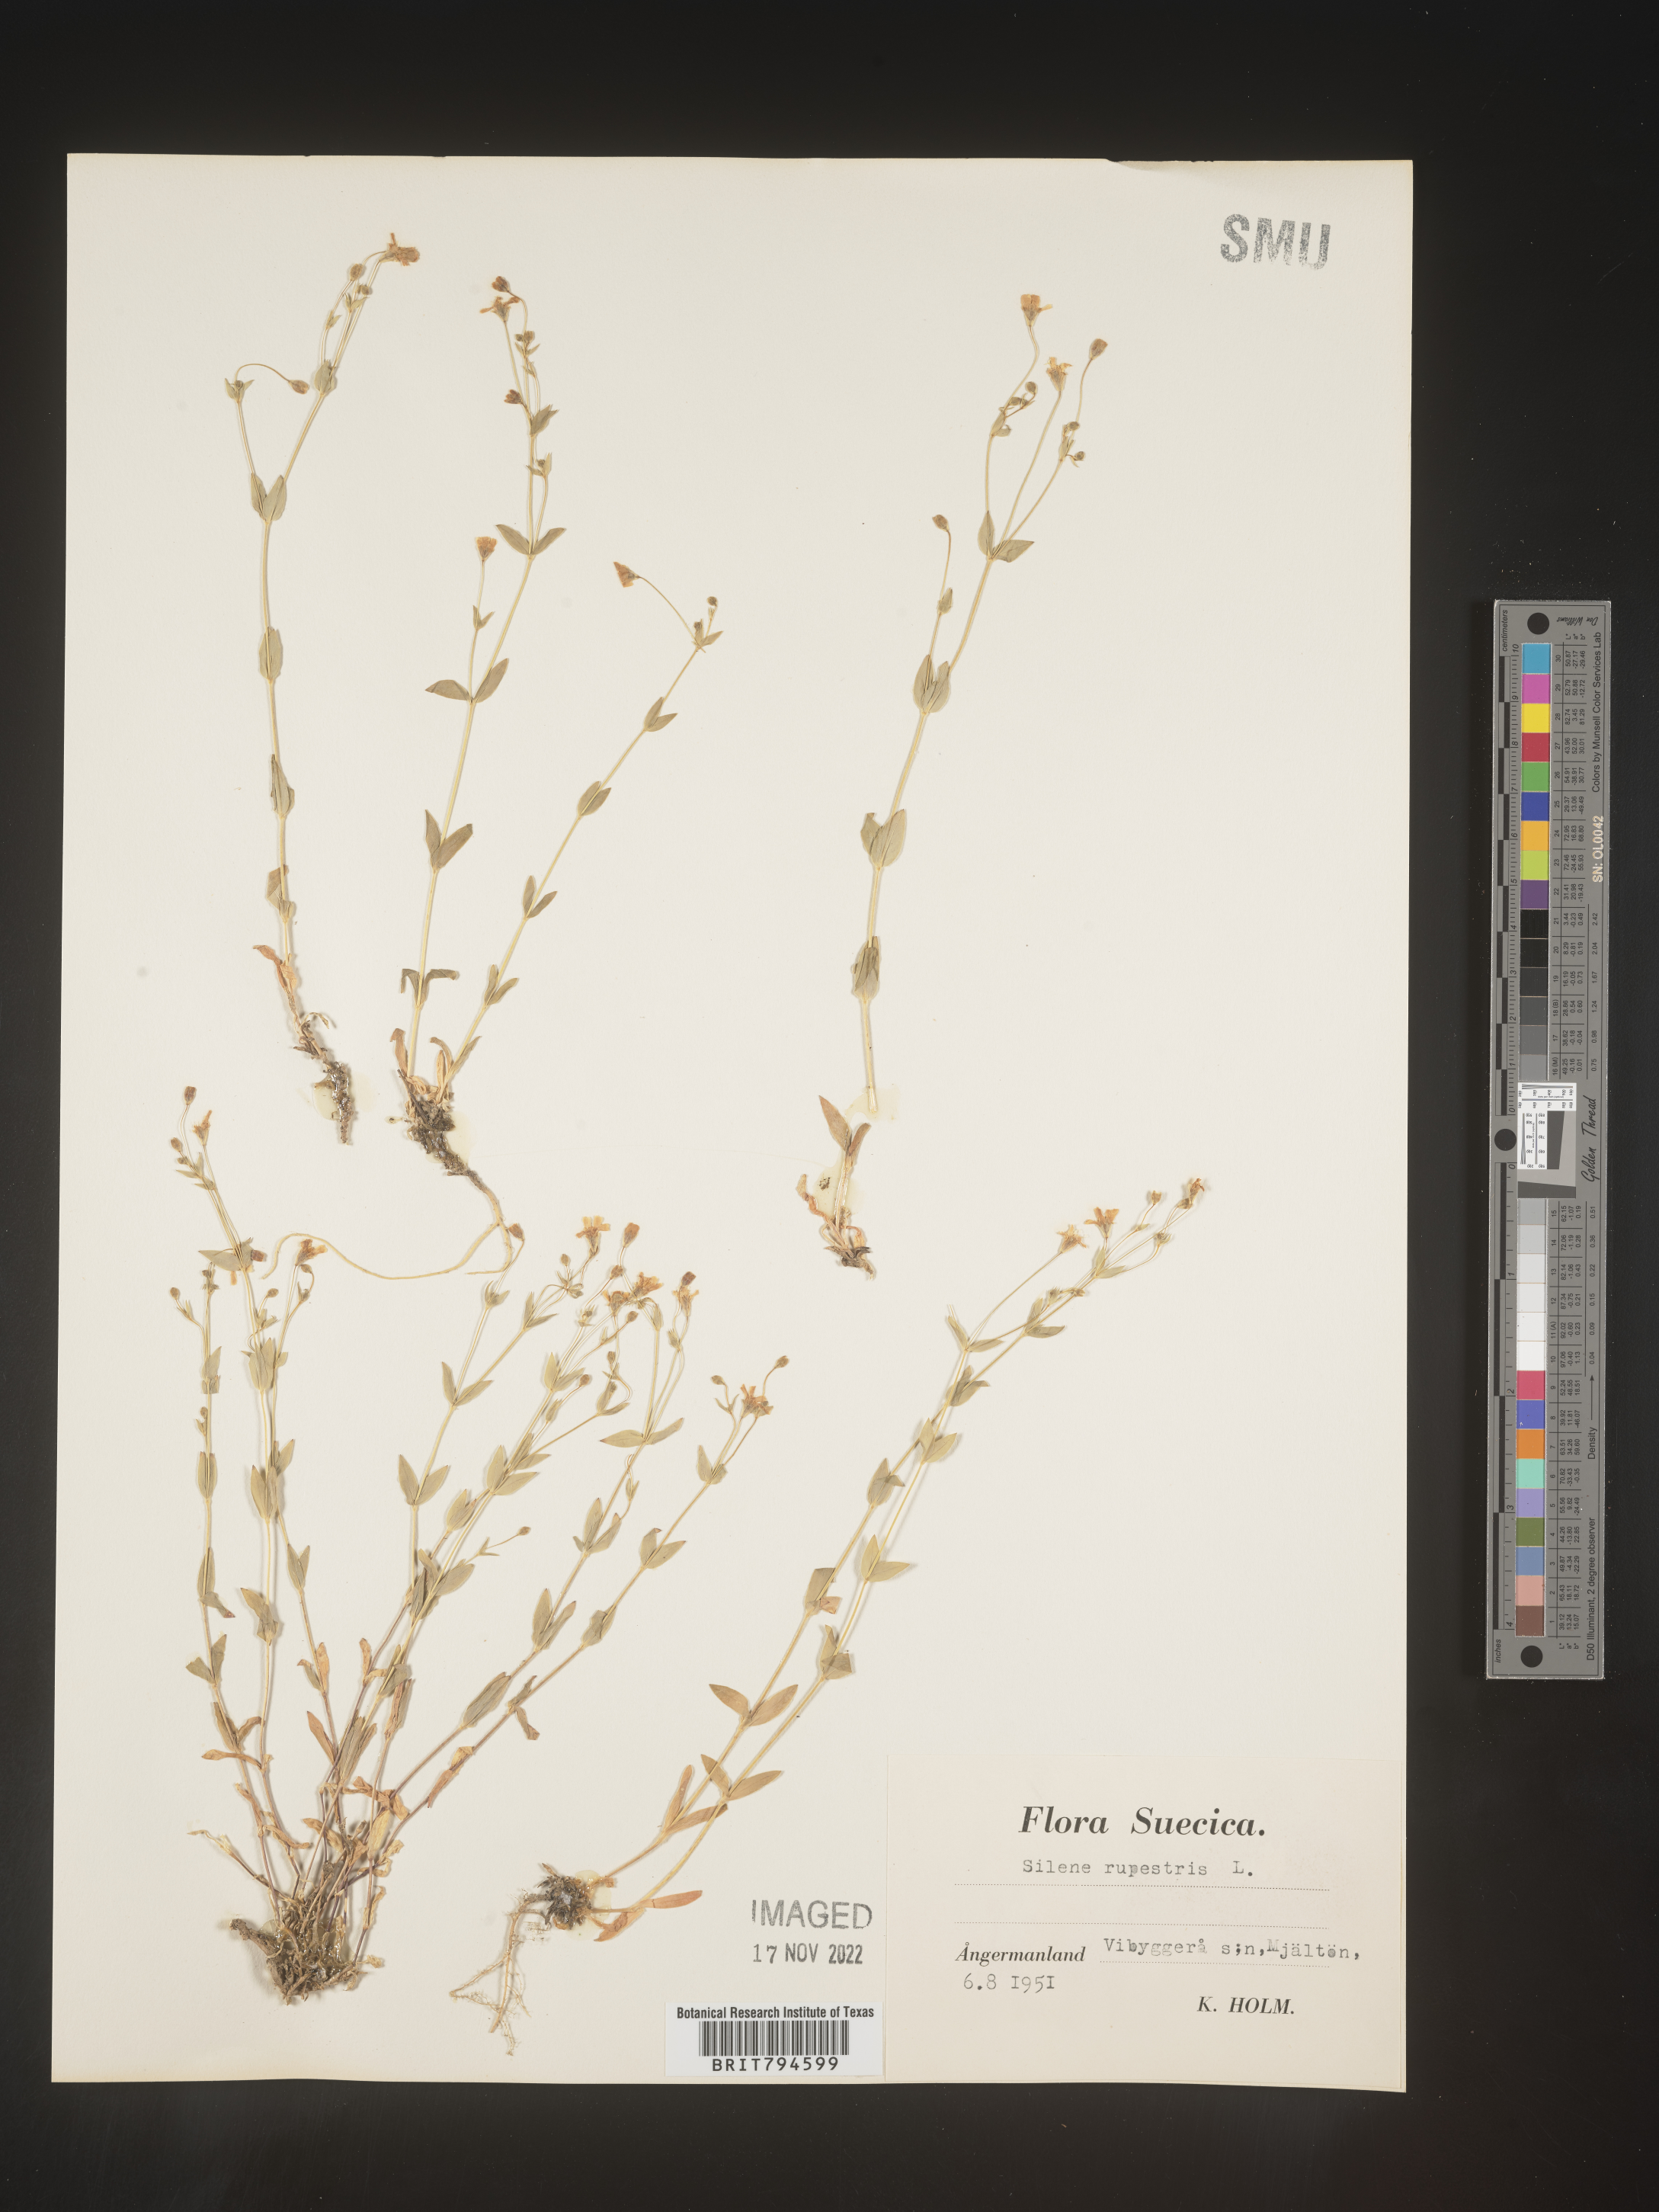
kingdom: Plantae
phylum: Tracheophyta
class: Magnoliopsida
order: Caryophyllales
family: Caryophyllaceae
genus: Atocion
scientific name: Atocion rupestre
